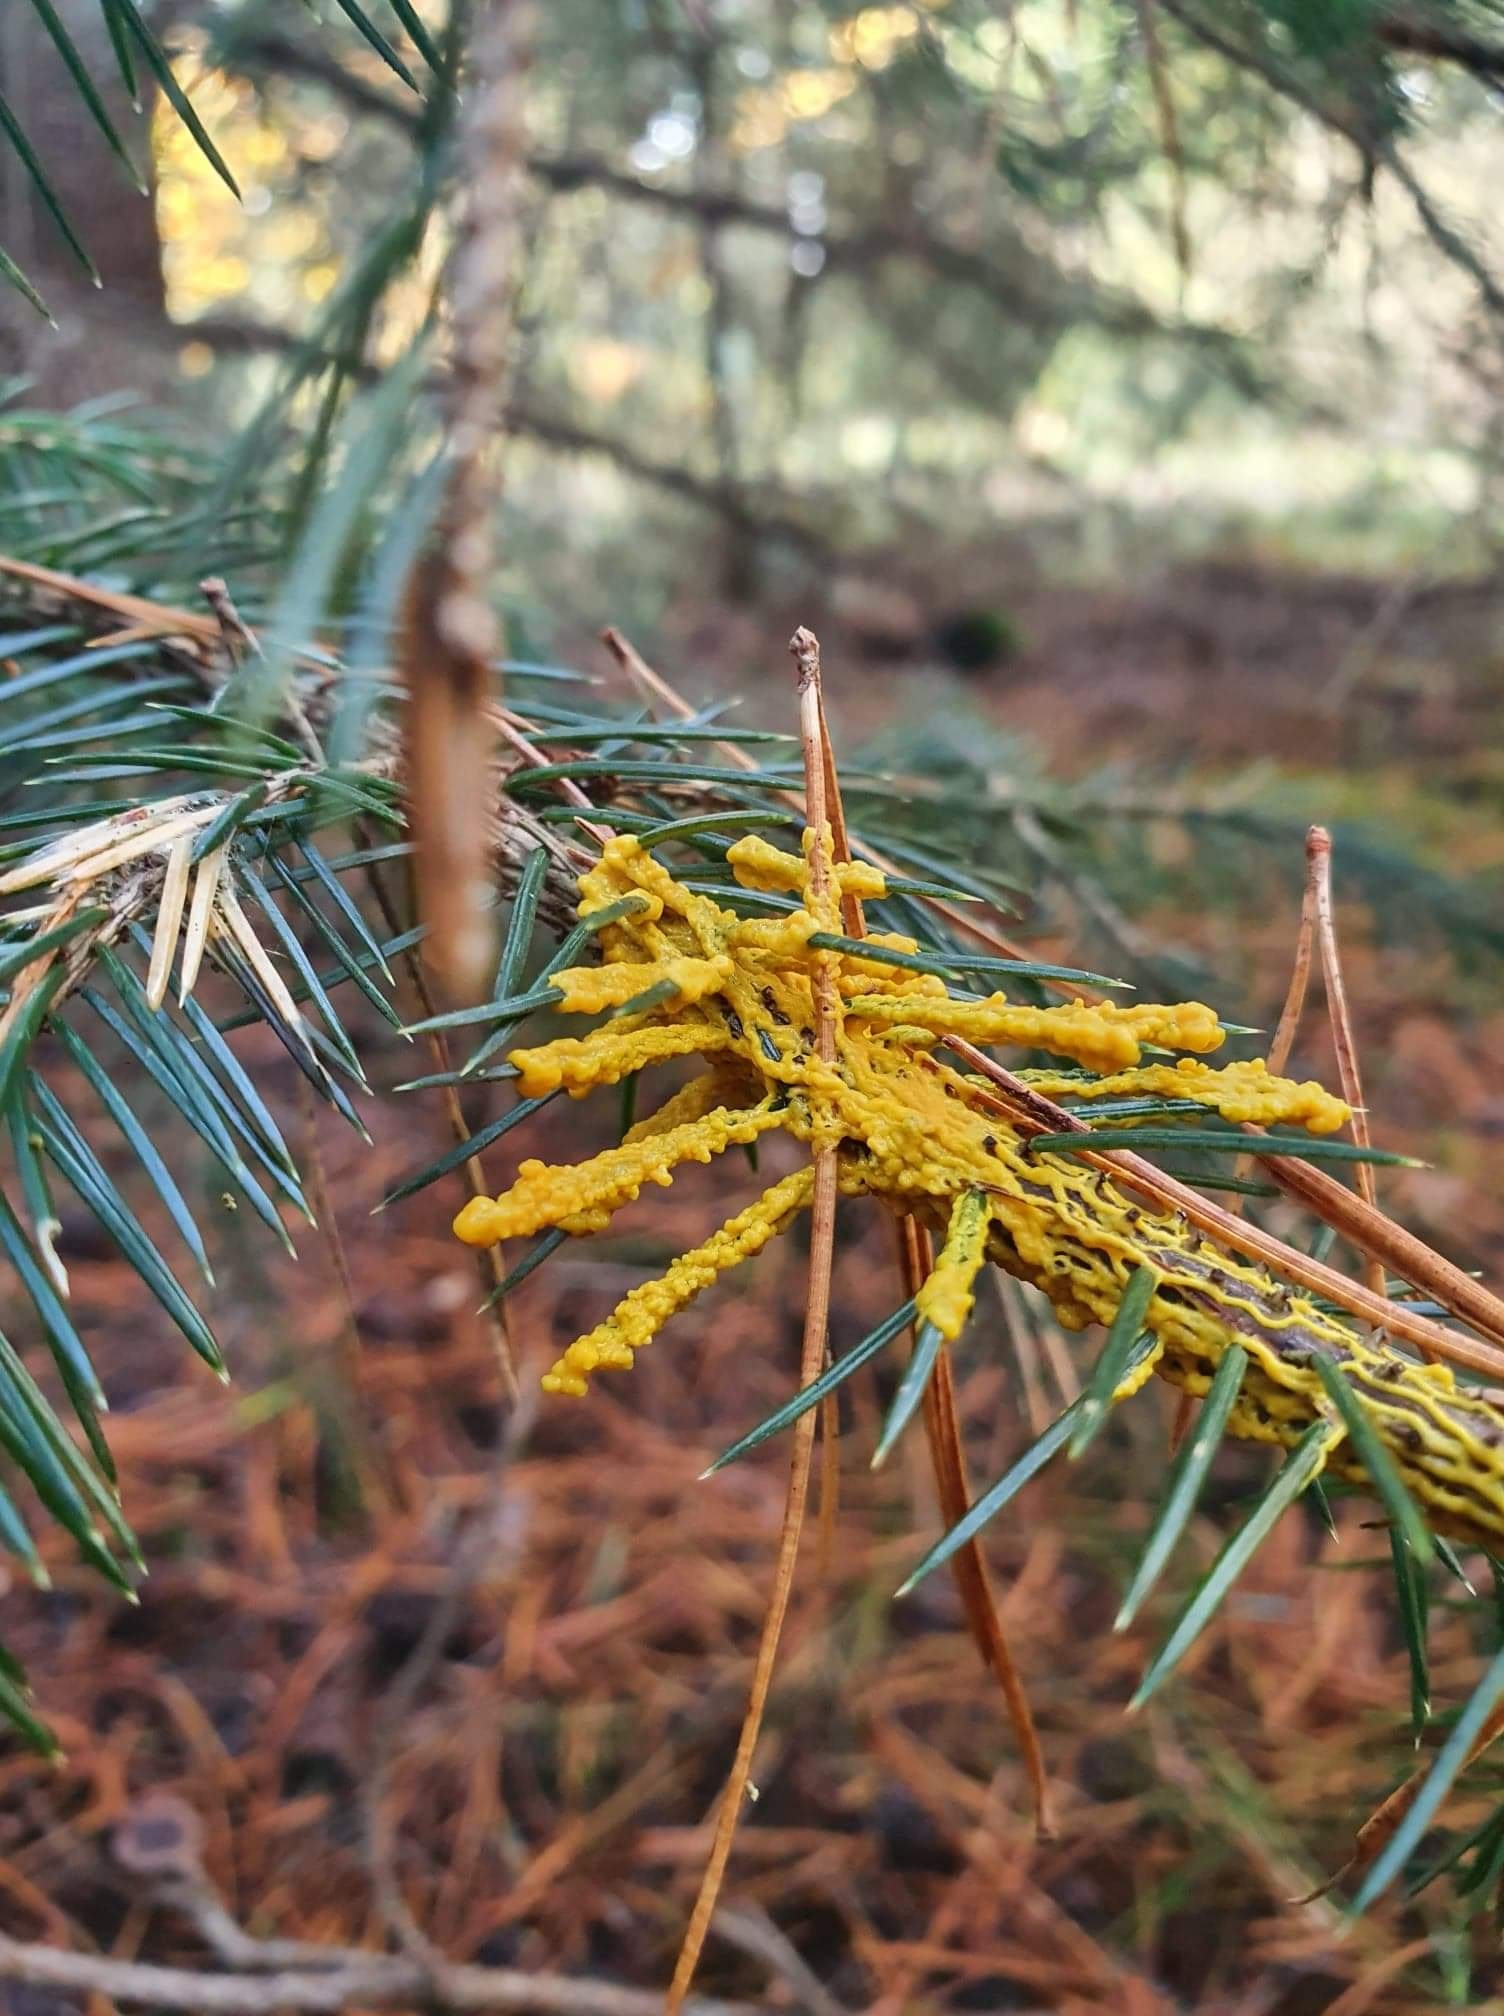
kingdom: Protozoa
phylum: Mycetozoa
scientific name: Mycetozoa
